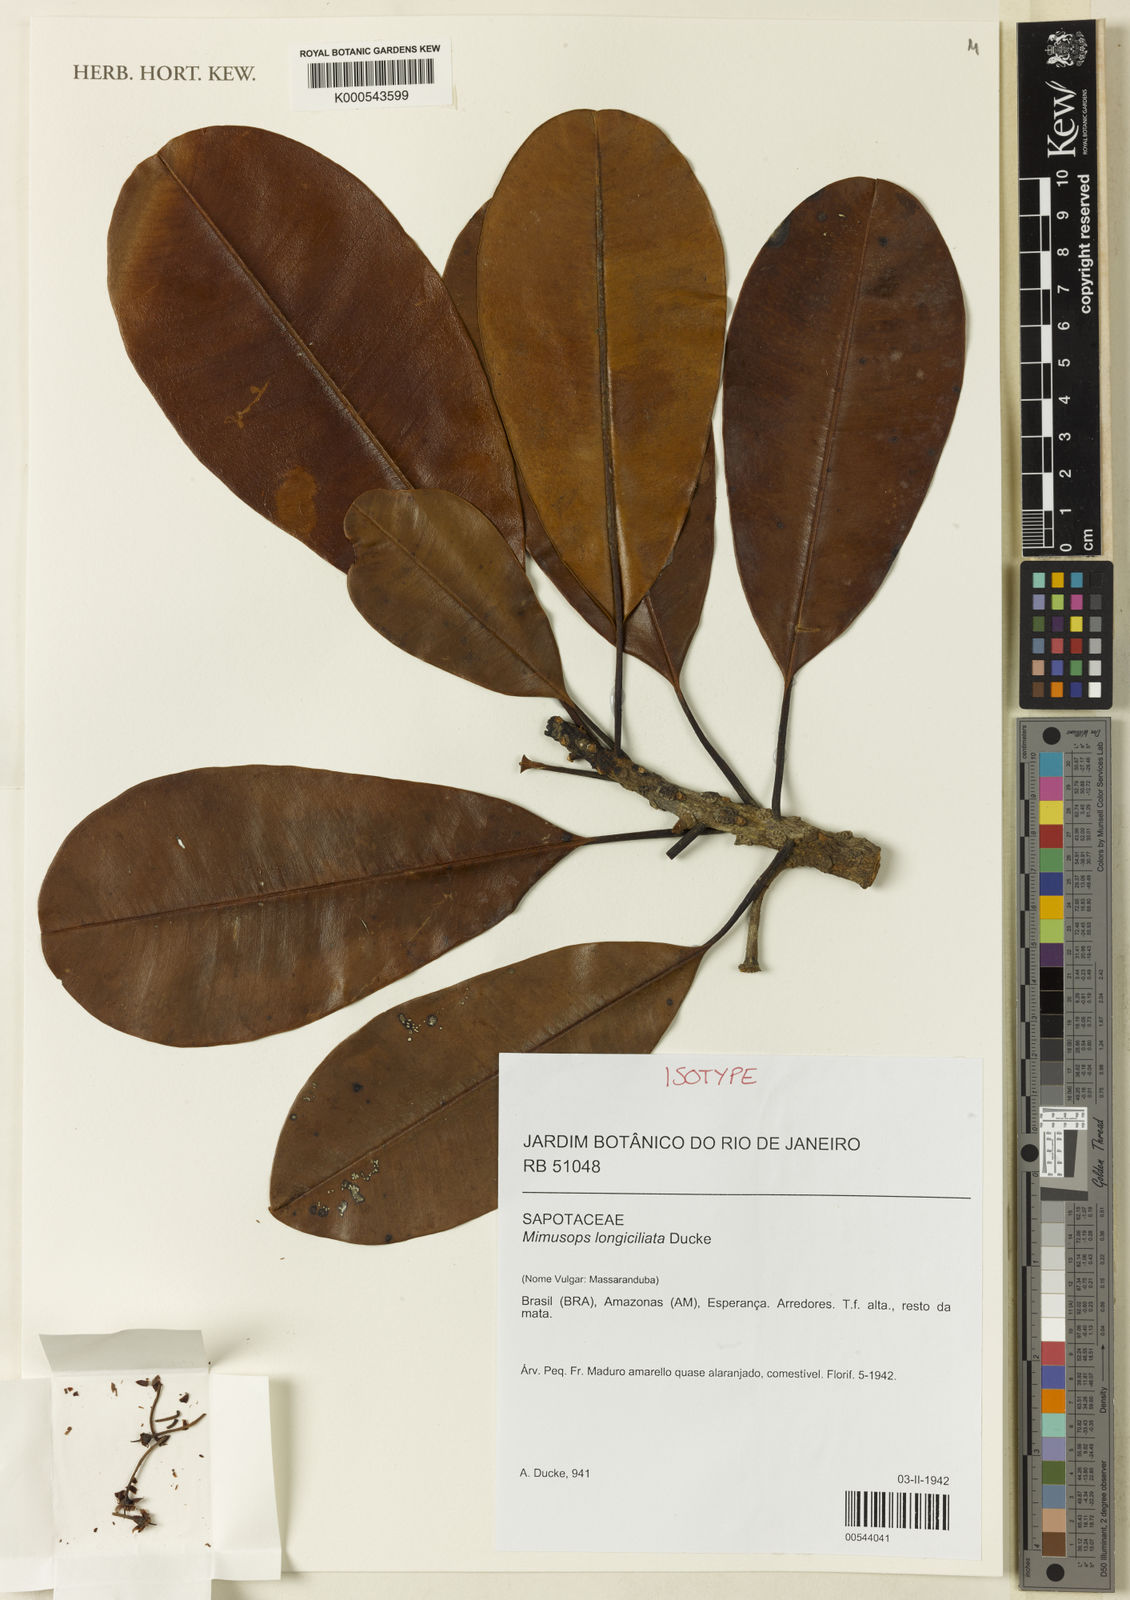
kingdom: Plantae
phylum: Tracheophyta
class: Magnoliopsida
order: Ericales
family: Sapotaceae
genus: Manilkara
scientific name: Manilkara bidentata
